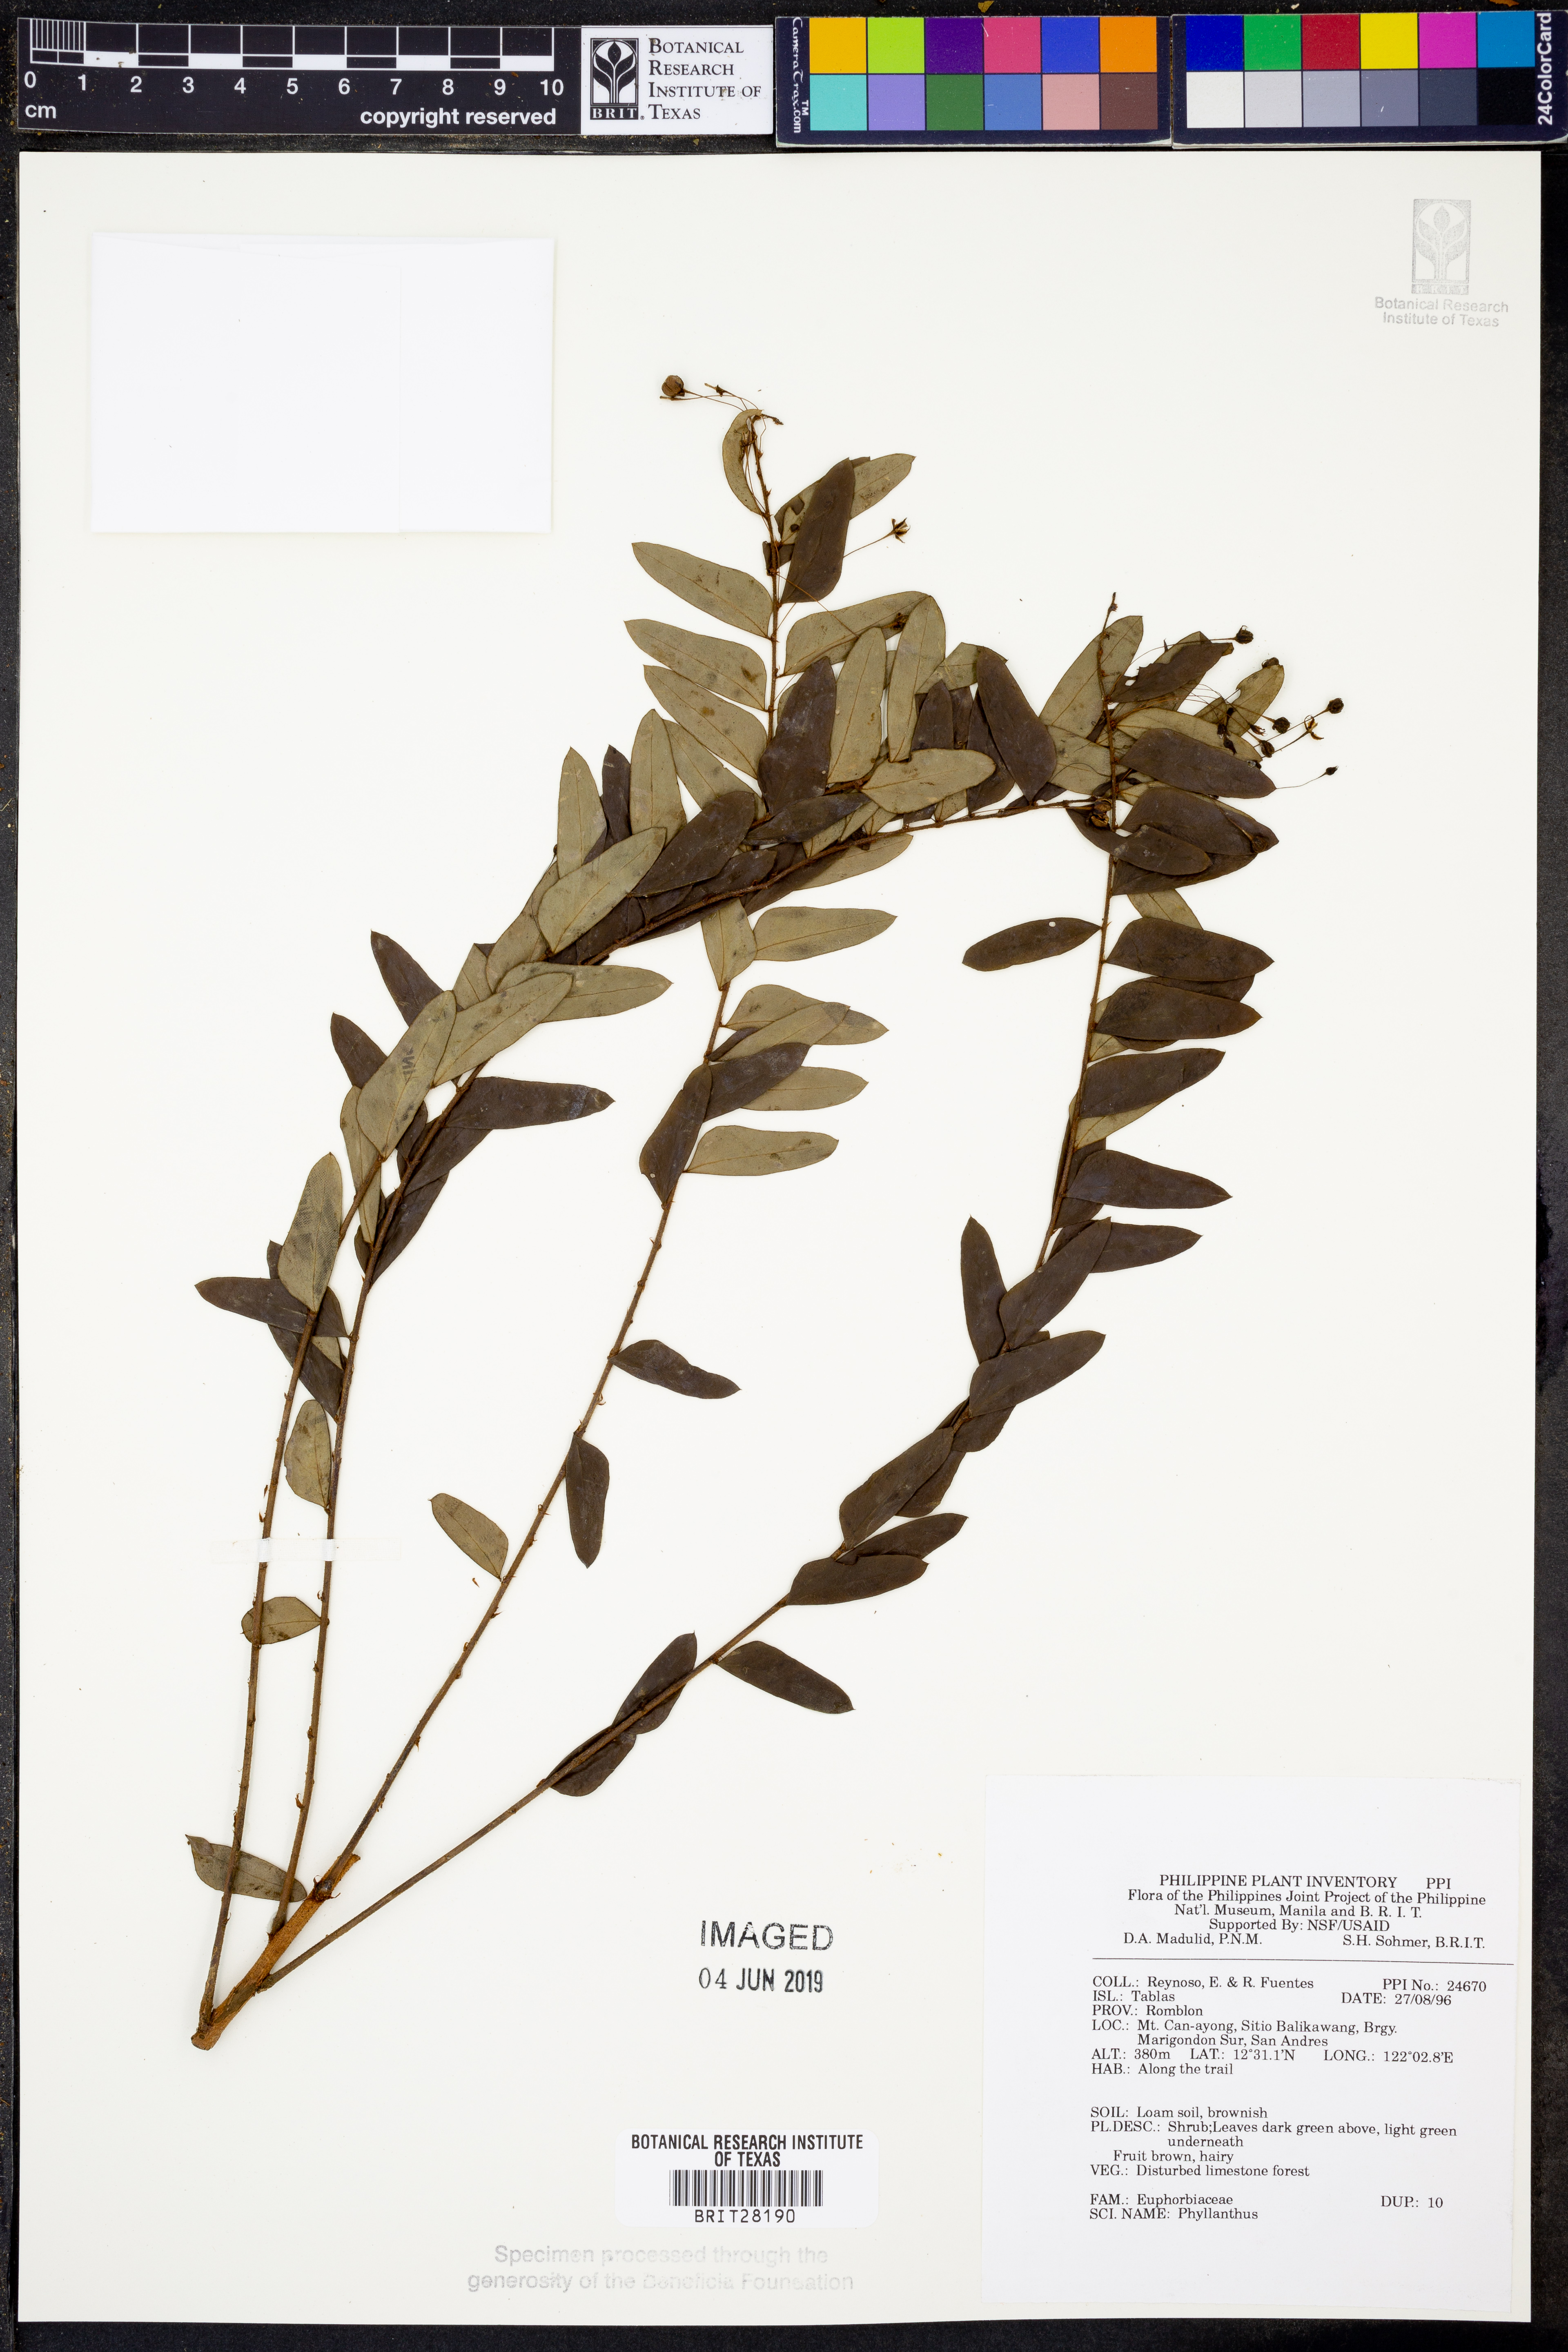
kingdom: Plantae
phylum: Tracheophyta
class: Magnoliopsida
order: Malpighiales
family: Phyllanthaceae
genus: Phyllanthus
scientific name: Phyllanthus
